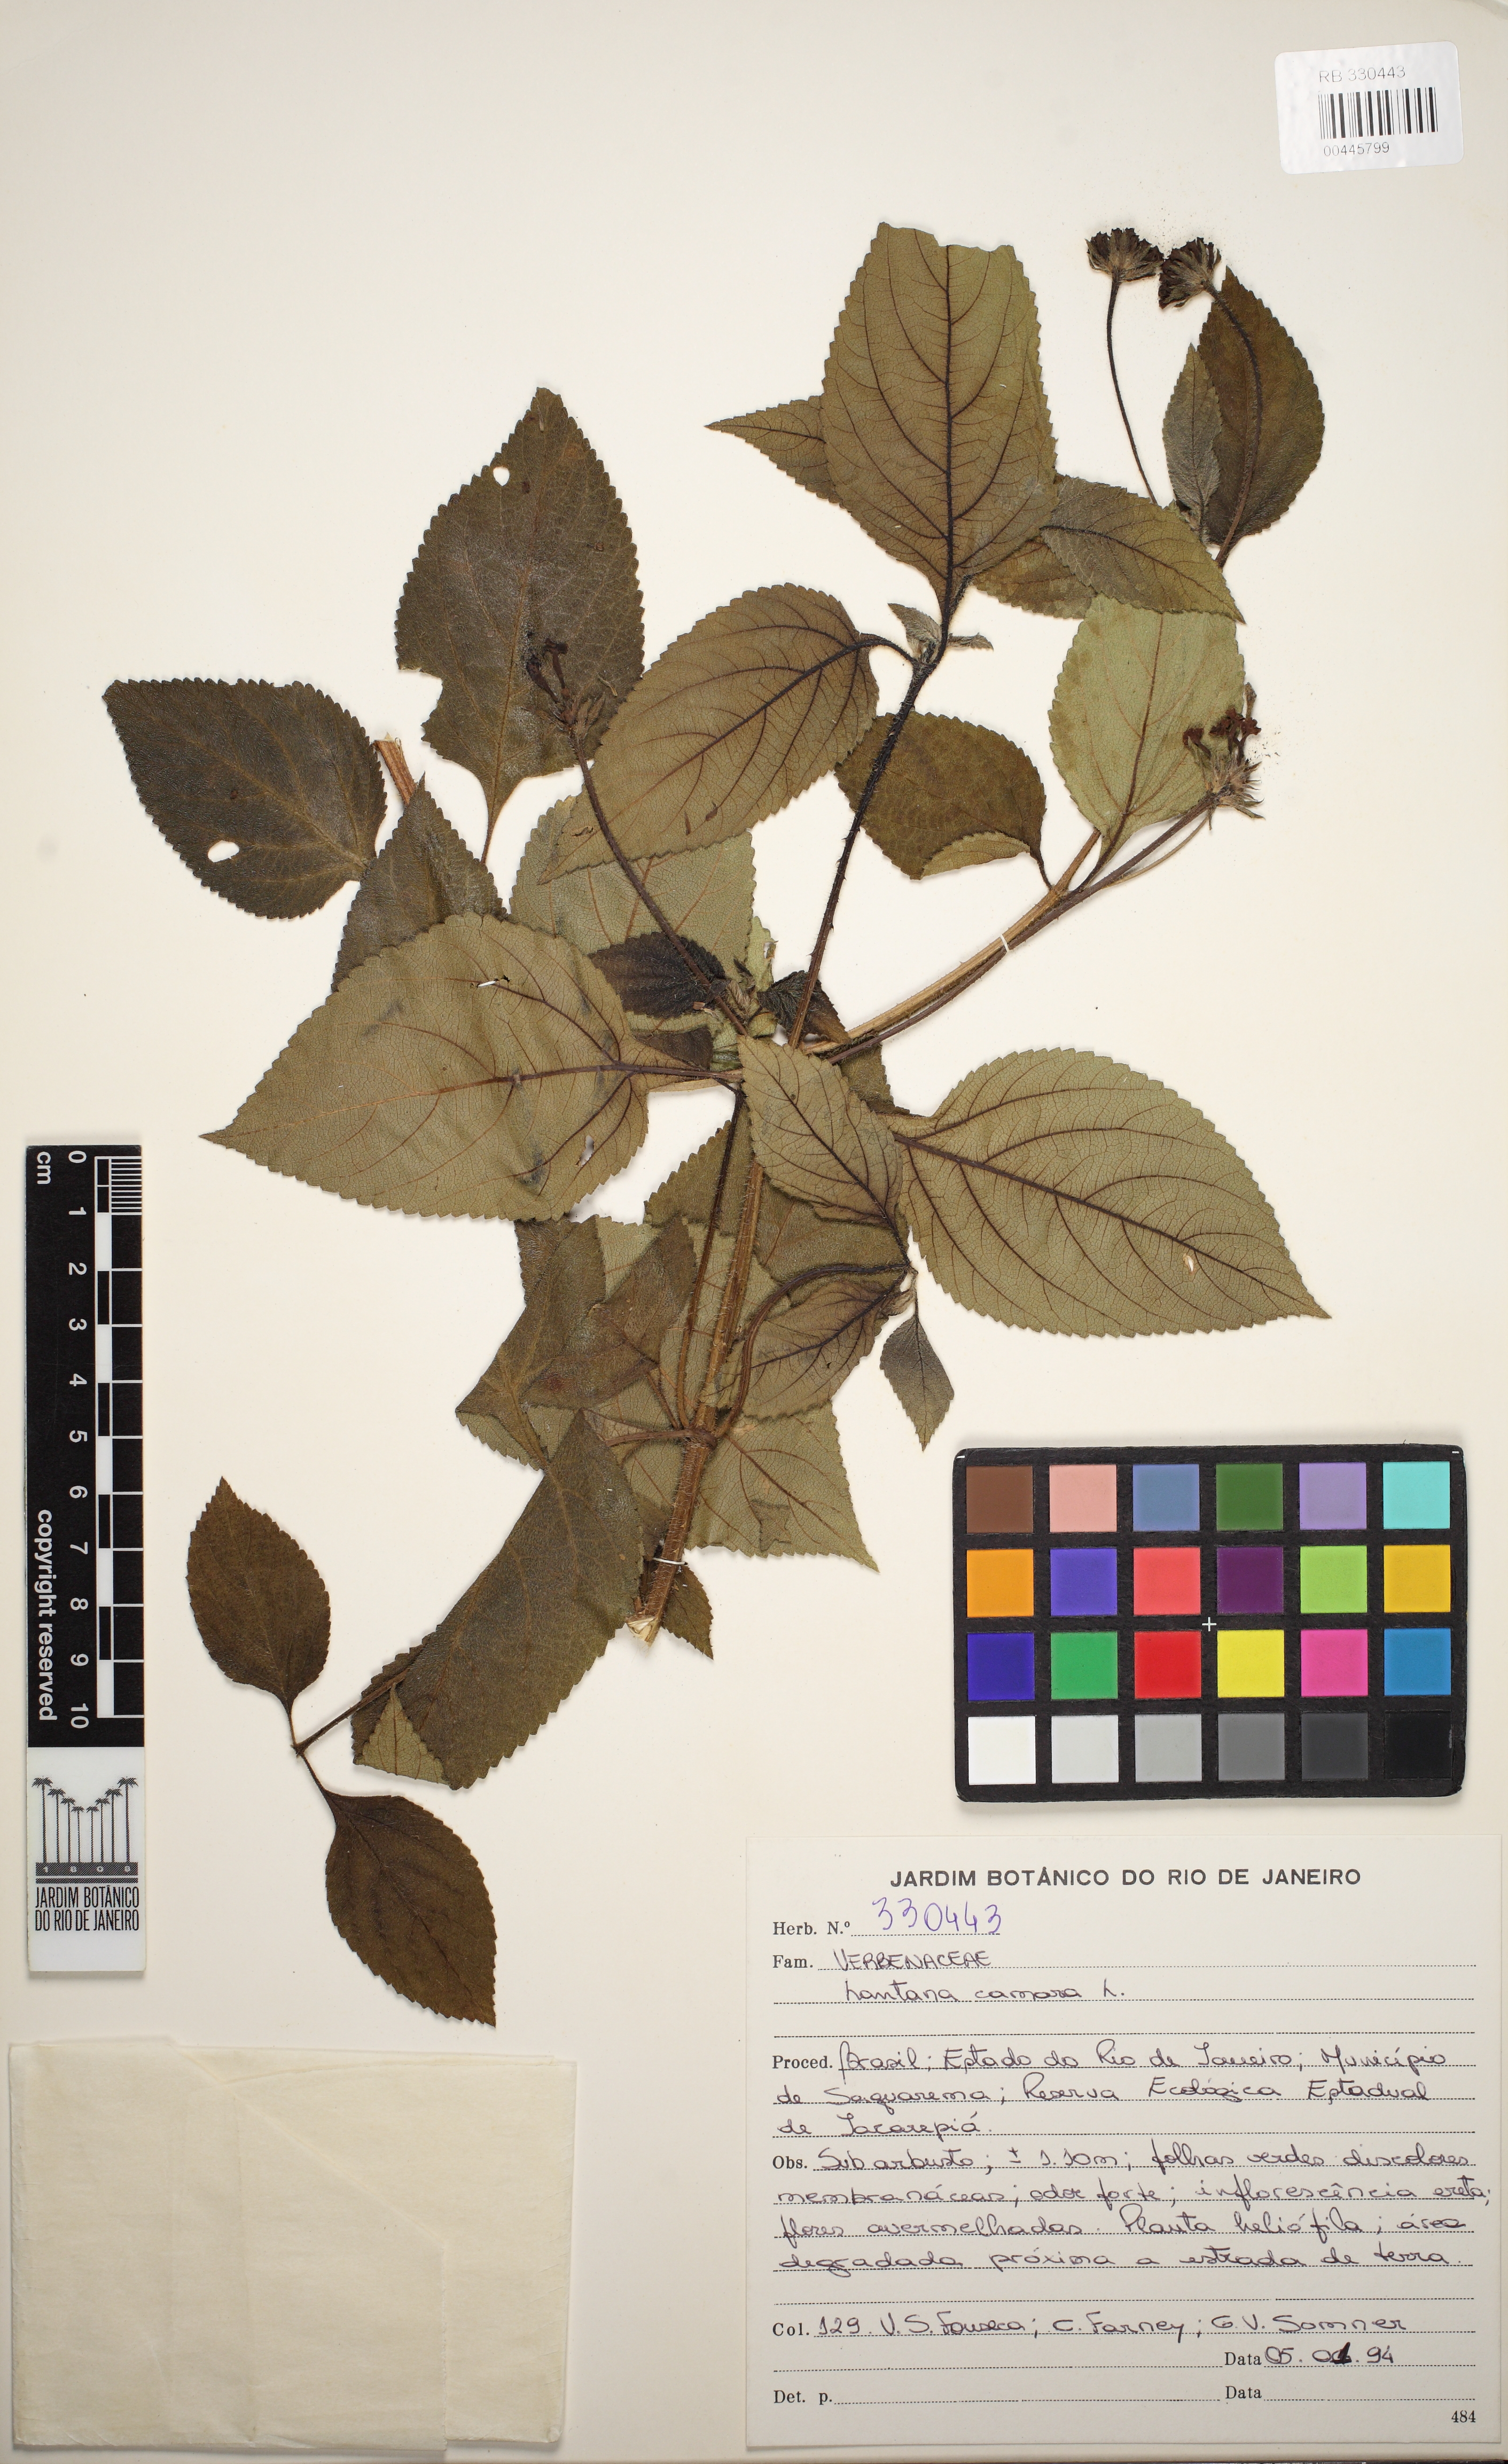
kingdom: Plantae
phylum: Tracheophyta
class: Magnoliopsida
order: Lamiales
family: Verbenaceae
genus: Lantana
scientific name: Lantana camara
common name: Lantana
